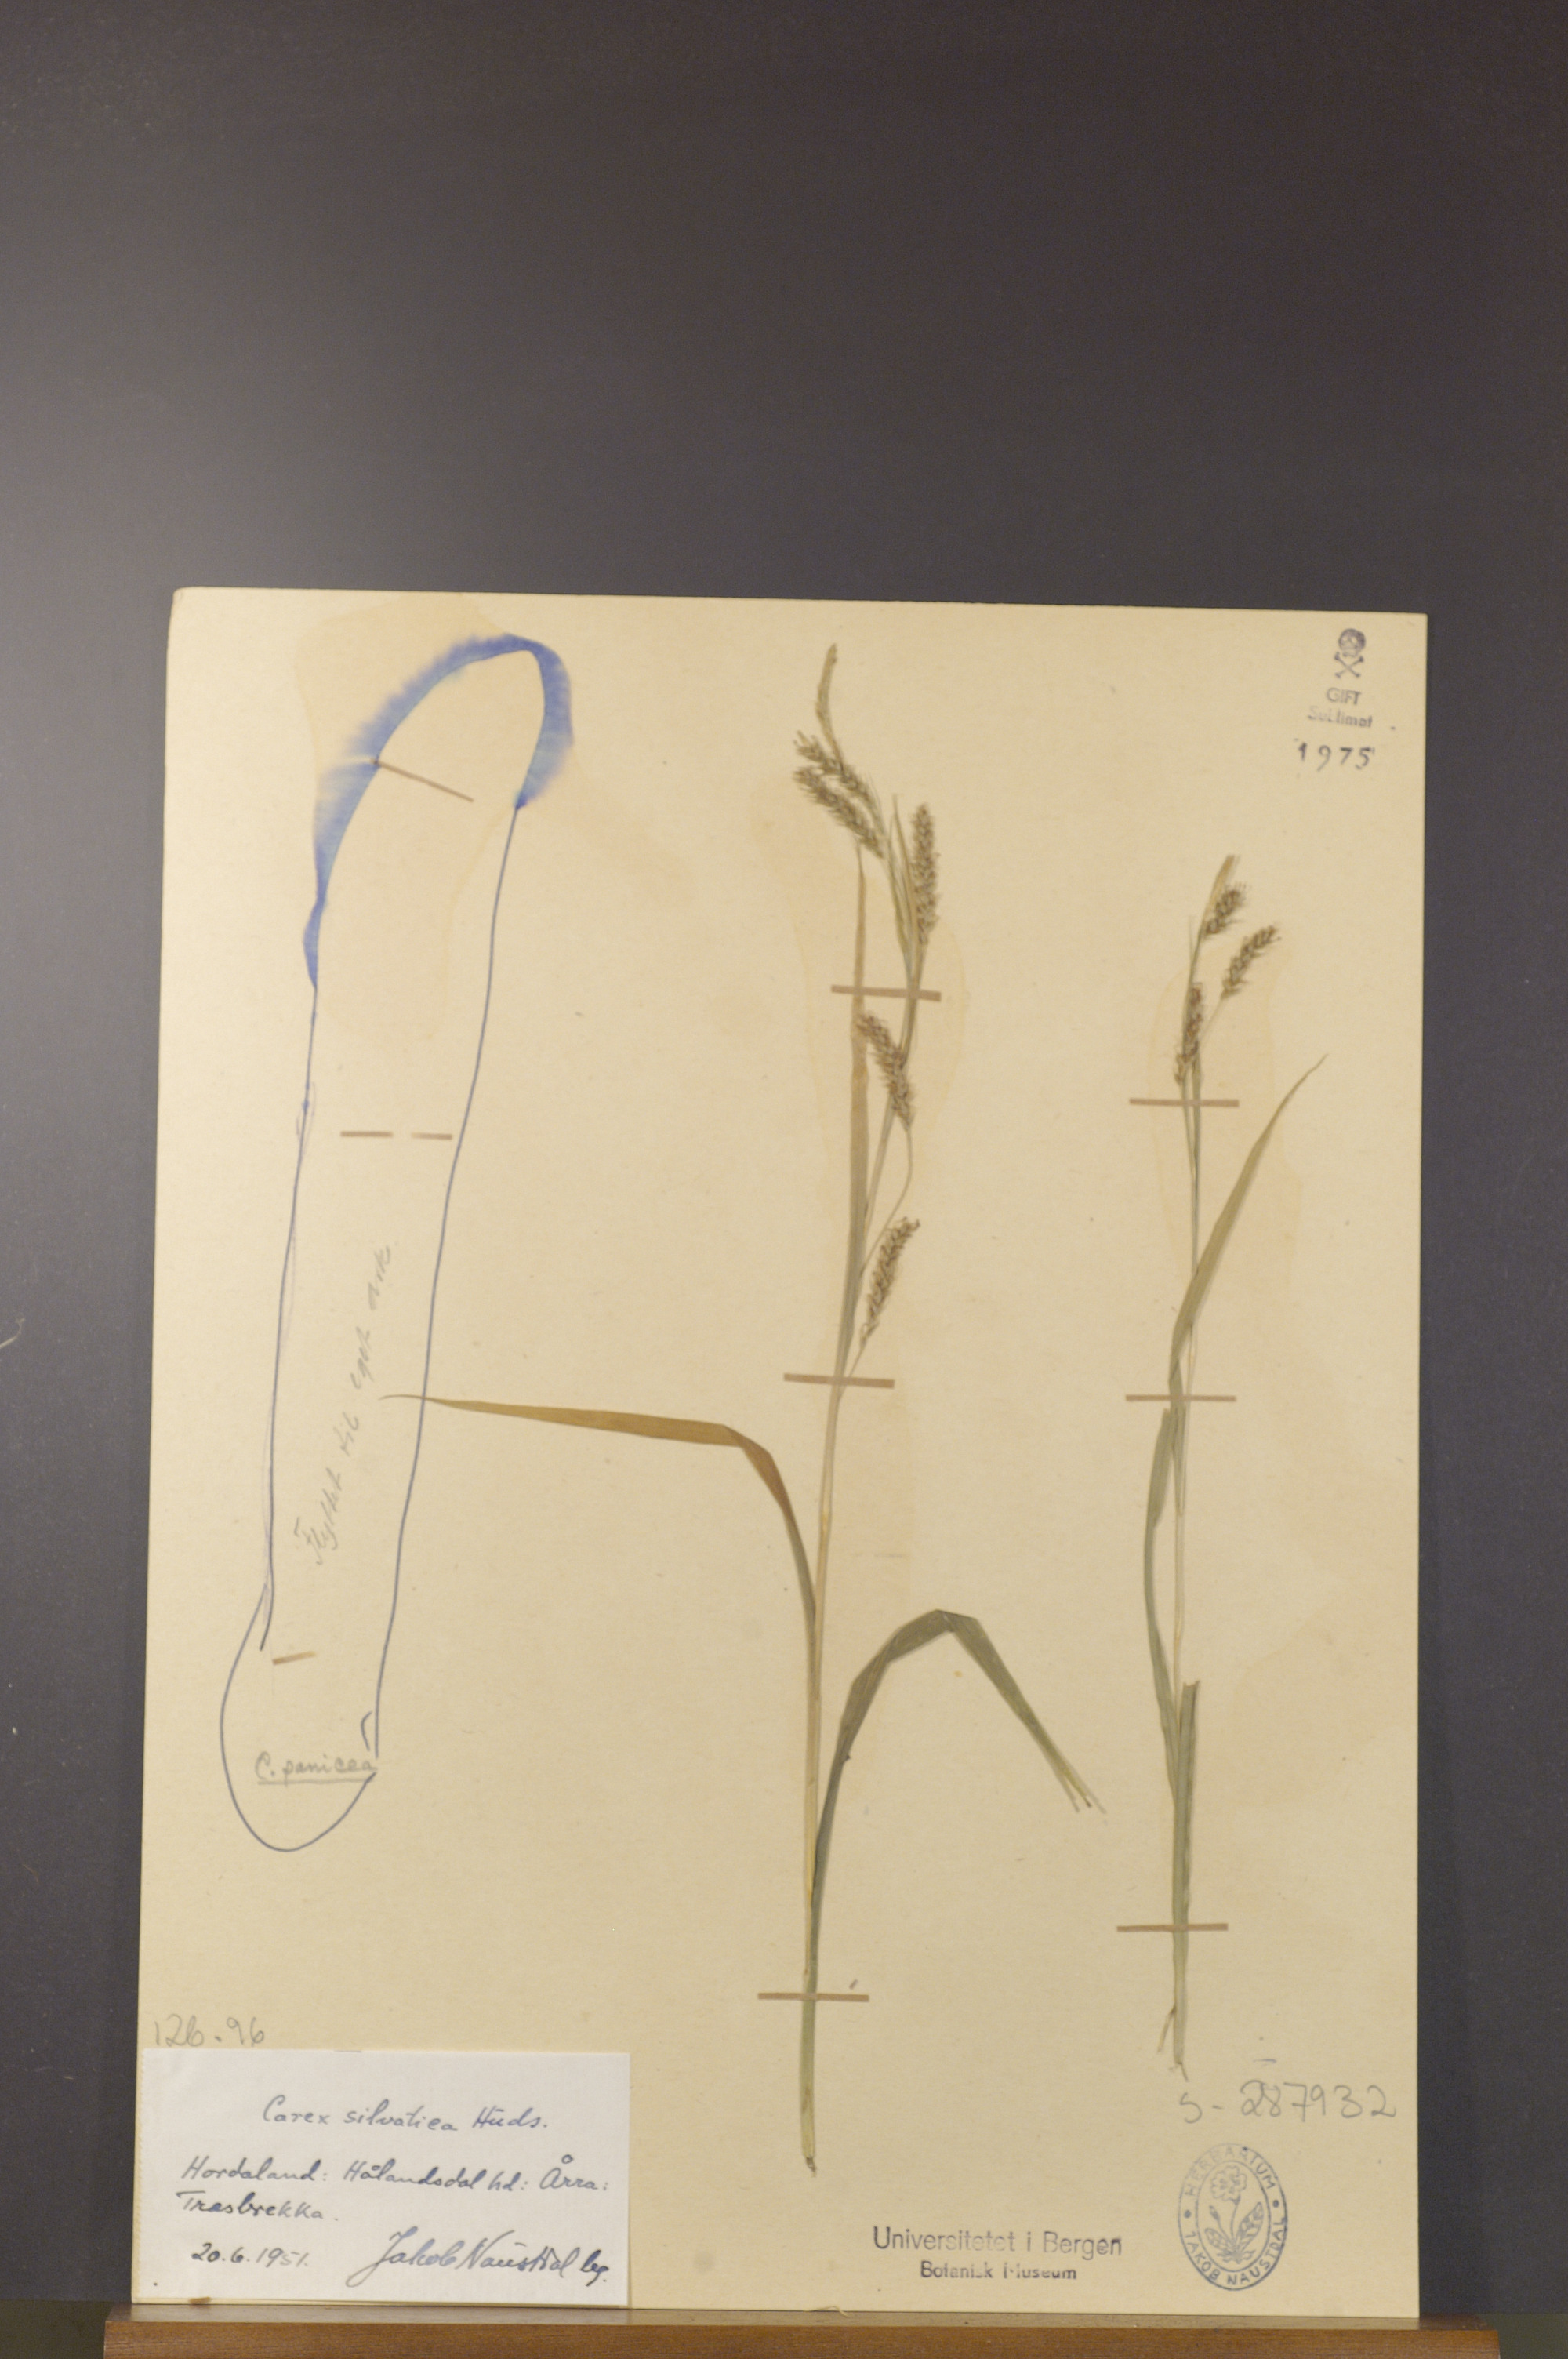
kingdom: Plantae
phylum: Tracheophyta
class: Liliopsida
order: Poales
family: Cyperaceae
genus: Carex
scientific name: Carex sylvatica
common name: Wood-sedge
